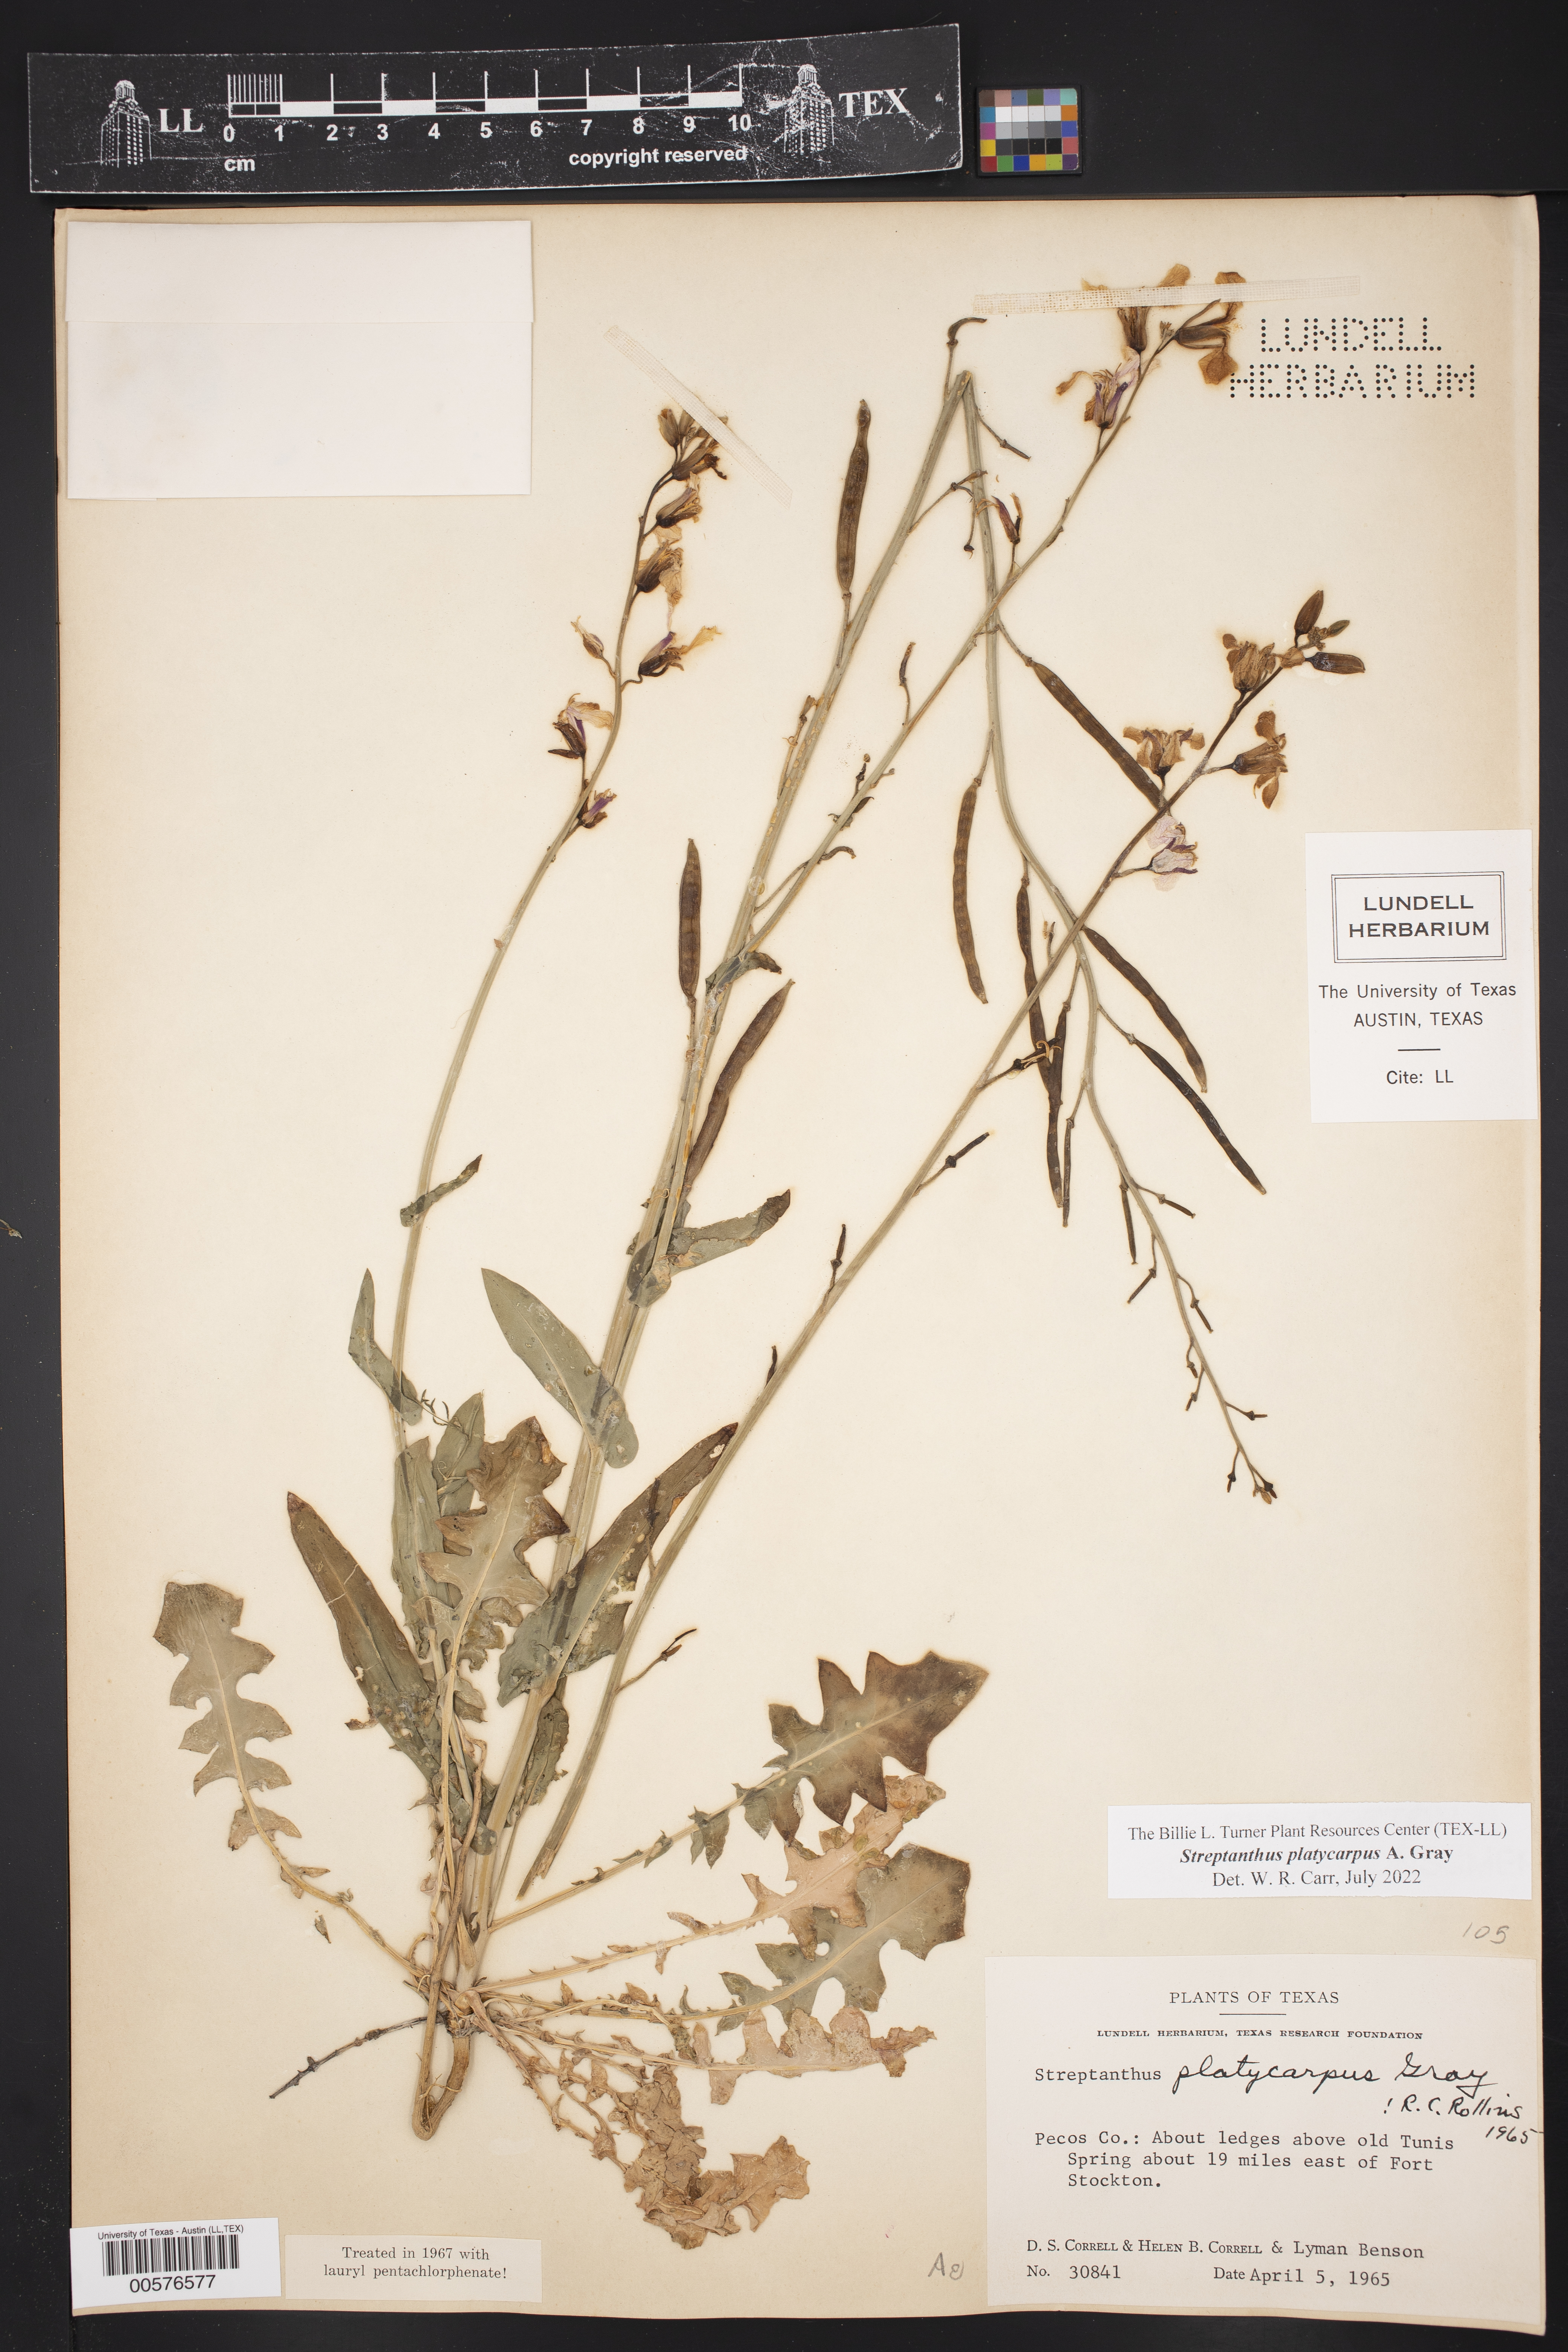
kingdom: Plantae
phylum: Tracheophyta
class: Magnoliopsida
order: Brassicales
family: Brassicaceae
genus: Streptanthus
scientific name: Streptanthus platycarpus
